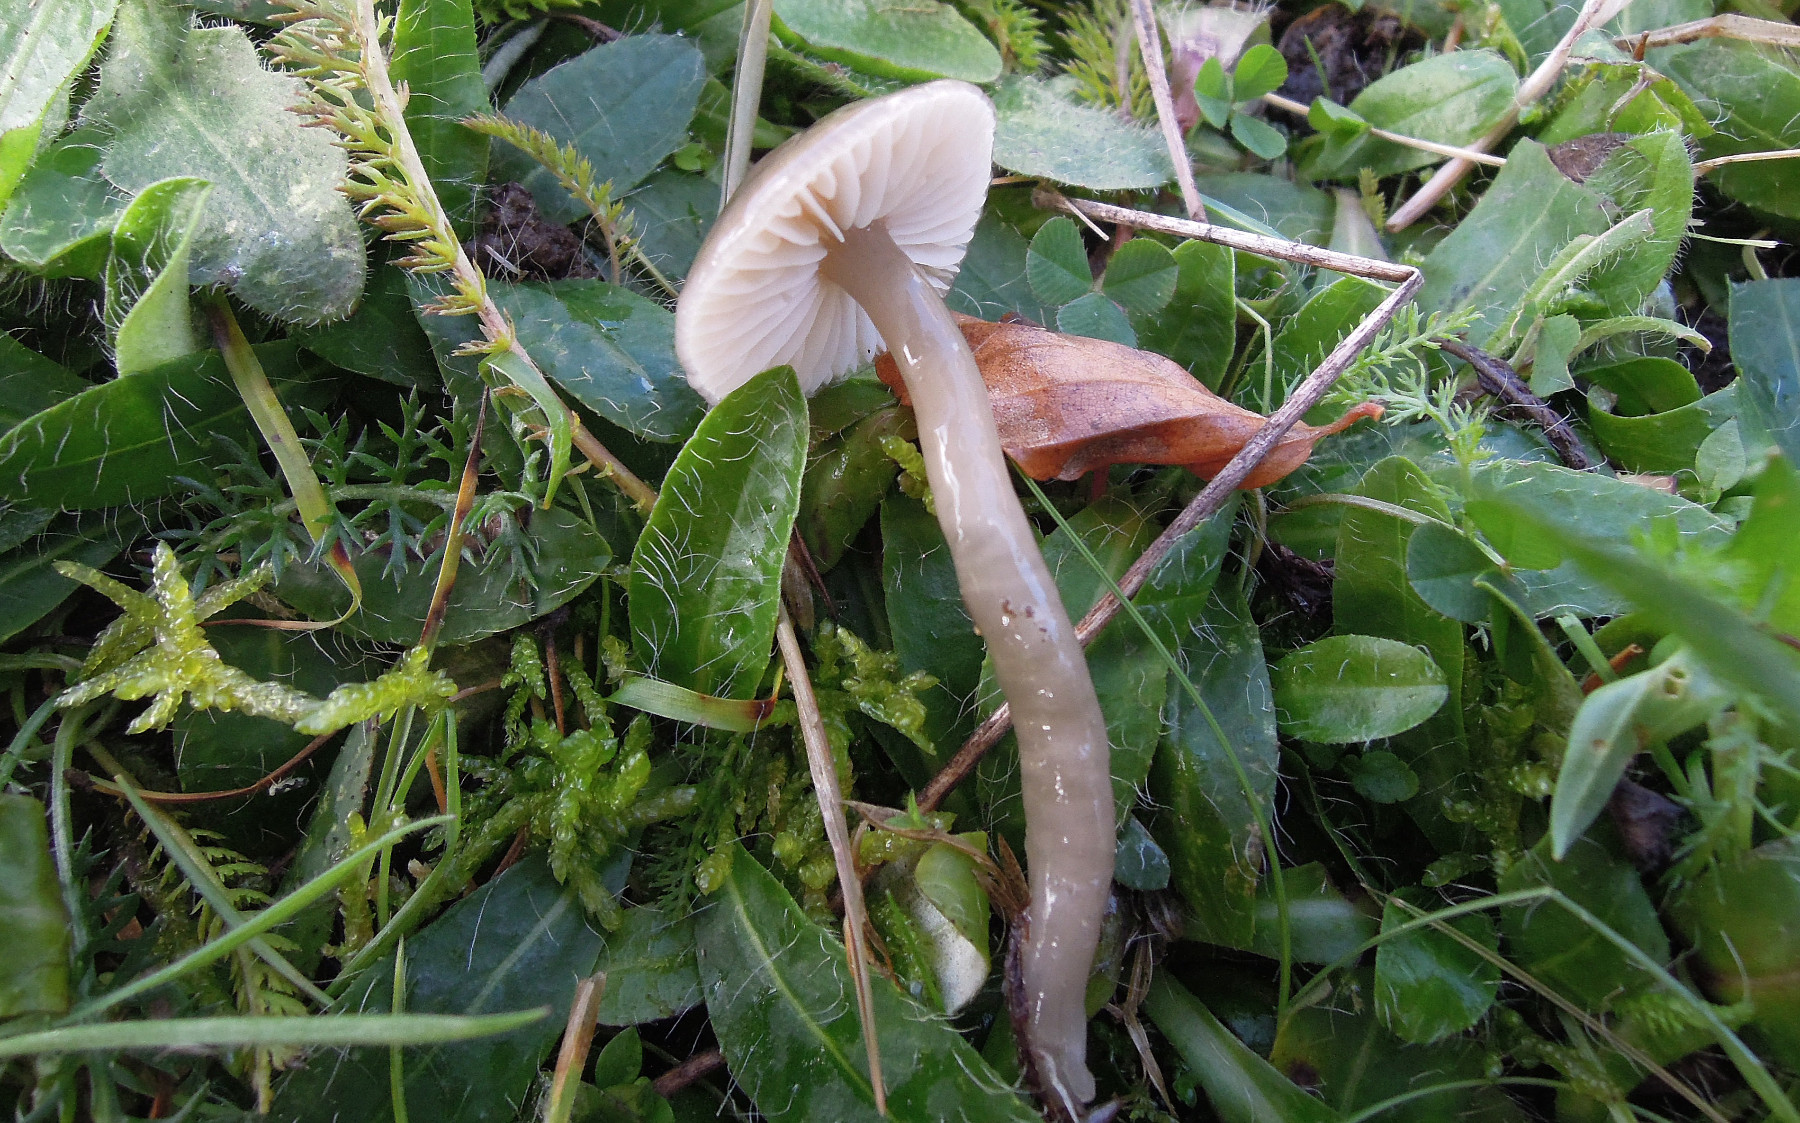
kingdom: Fungi
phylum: Basidiomycota
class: Agaricomycetes
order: Agaricales
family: Hygrophoraceae
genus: Gliophorus
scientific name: Gliophorus irrigatus
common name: slimet vokshat
